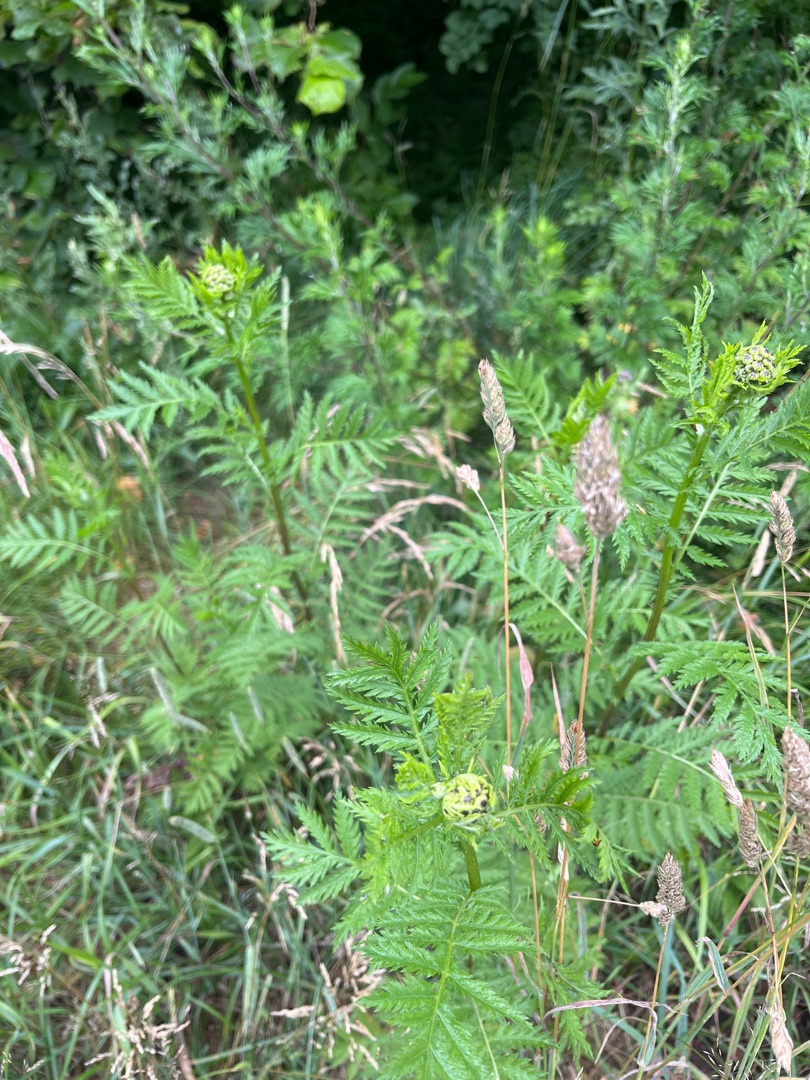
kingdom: Plantae
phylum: Tracheophyta
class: Magnoliopsida
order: Asterales
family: Asteraceae
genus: Tanacetum
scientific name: Tanacetum vulgare
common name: Rejnfan
